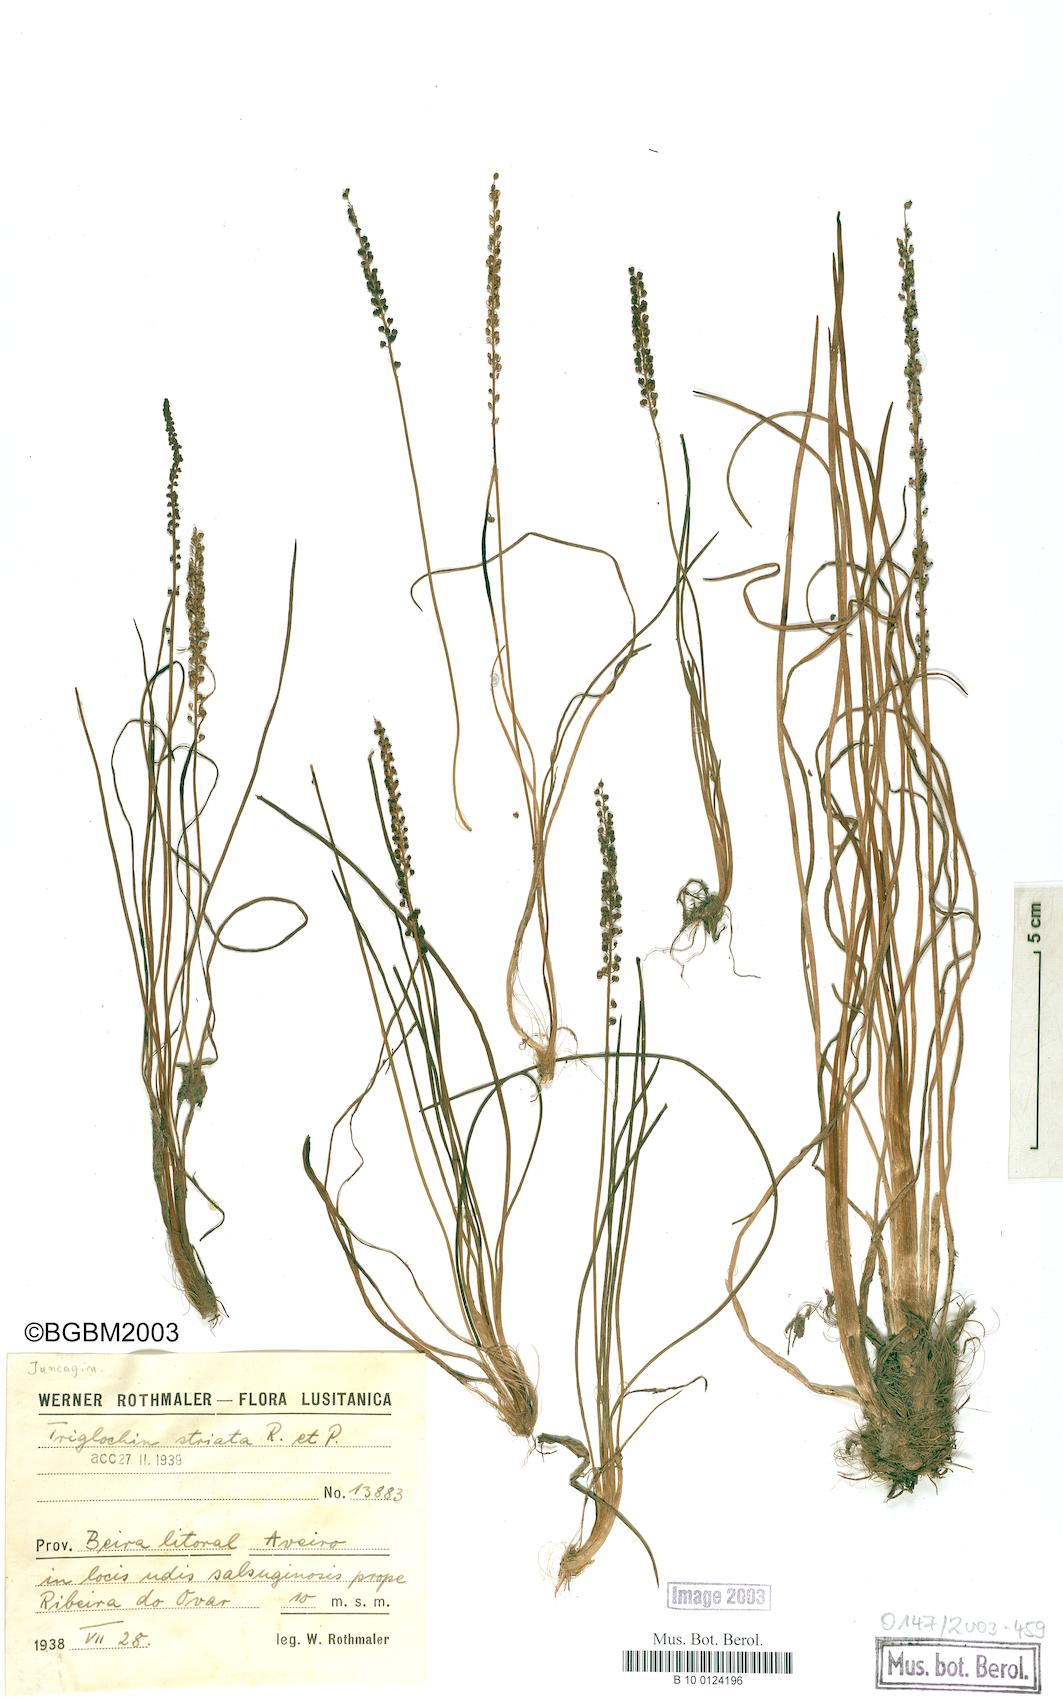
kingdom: Plantae
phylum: Tracheophyta
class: Liliopsida
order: Alismatales
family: Juncaginaceae
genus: Triglochin
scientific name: Triglochin striata
